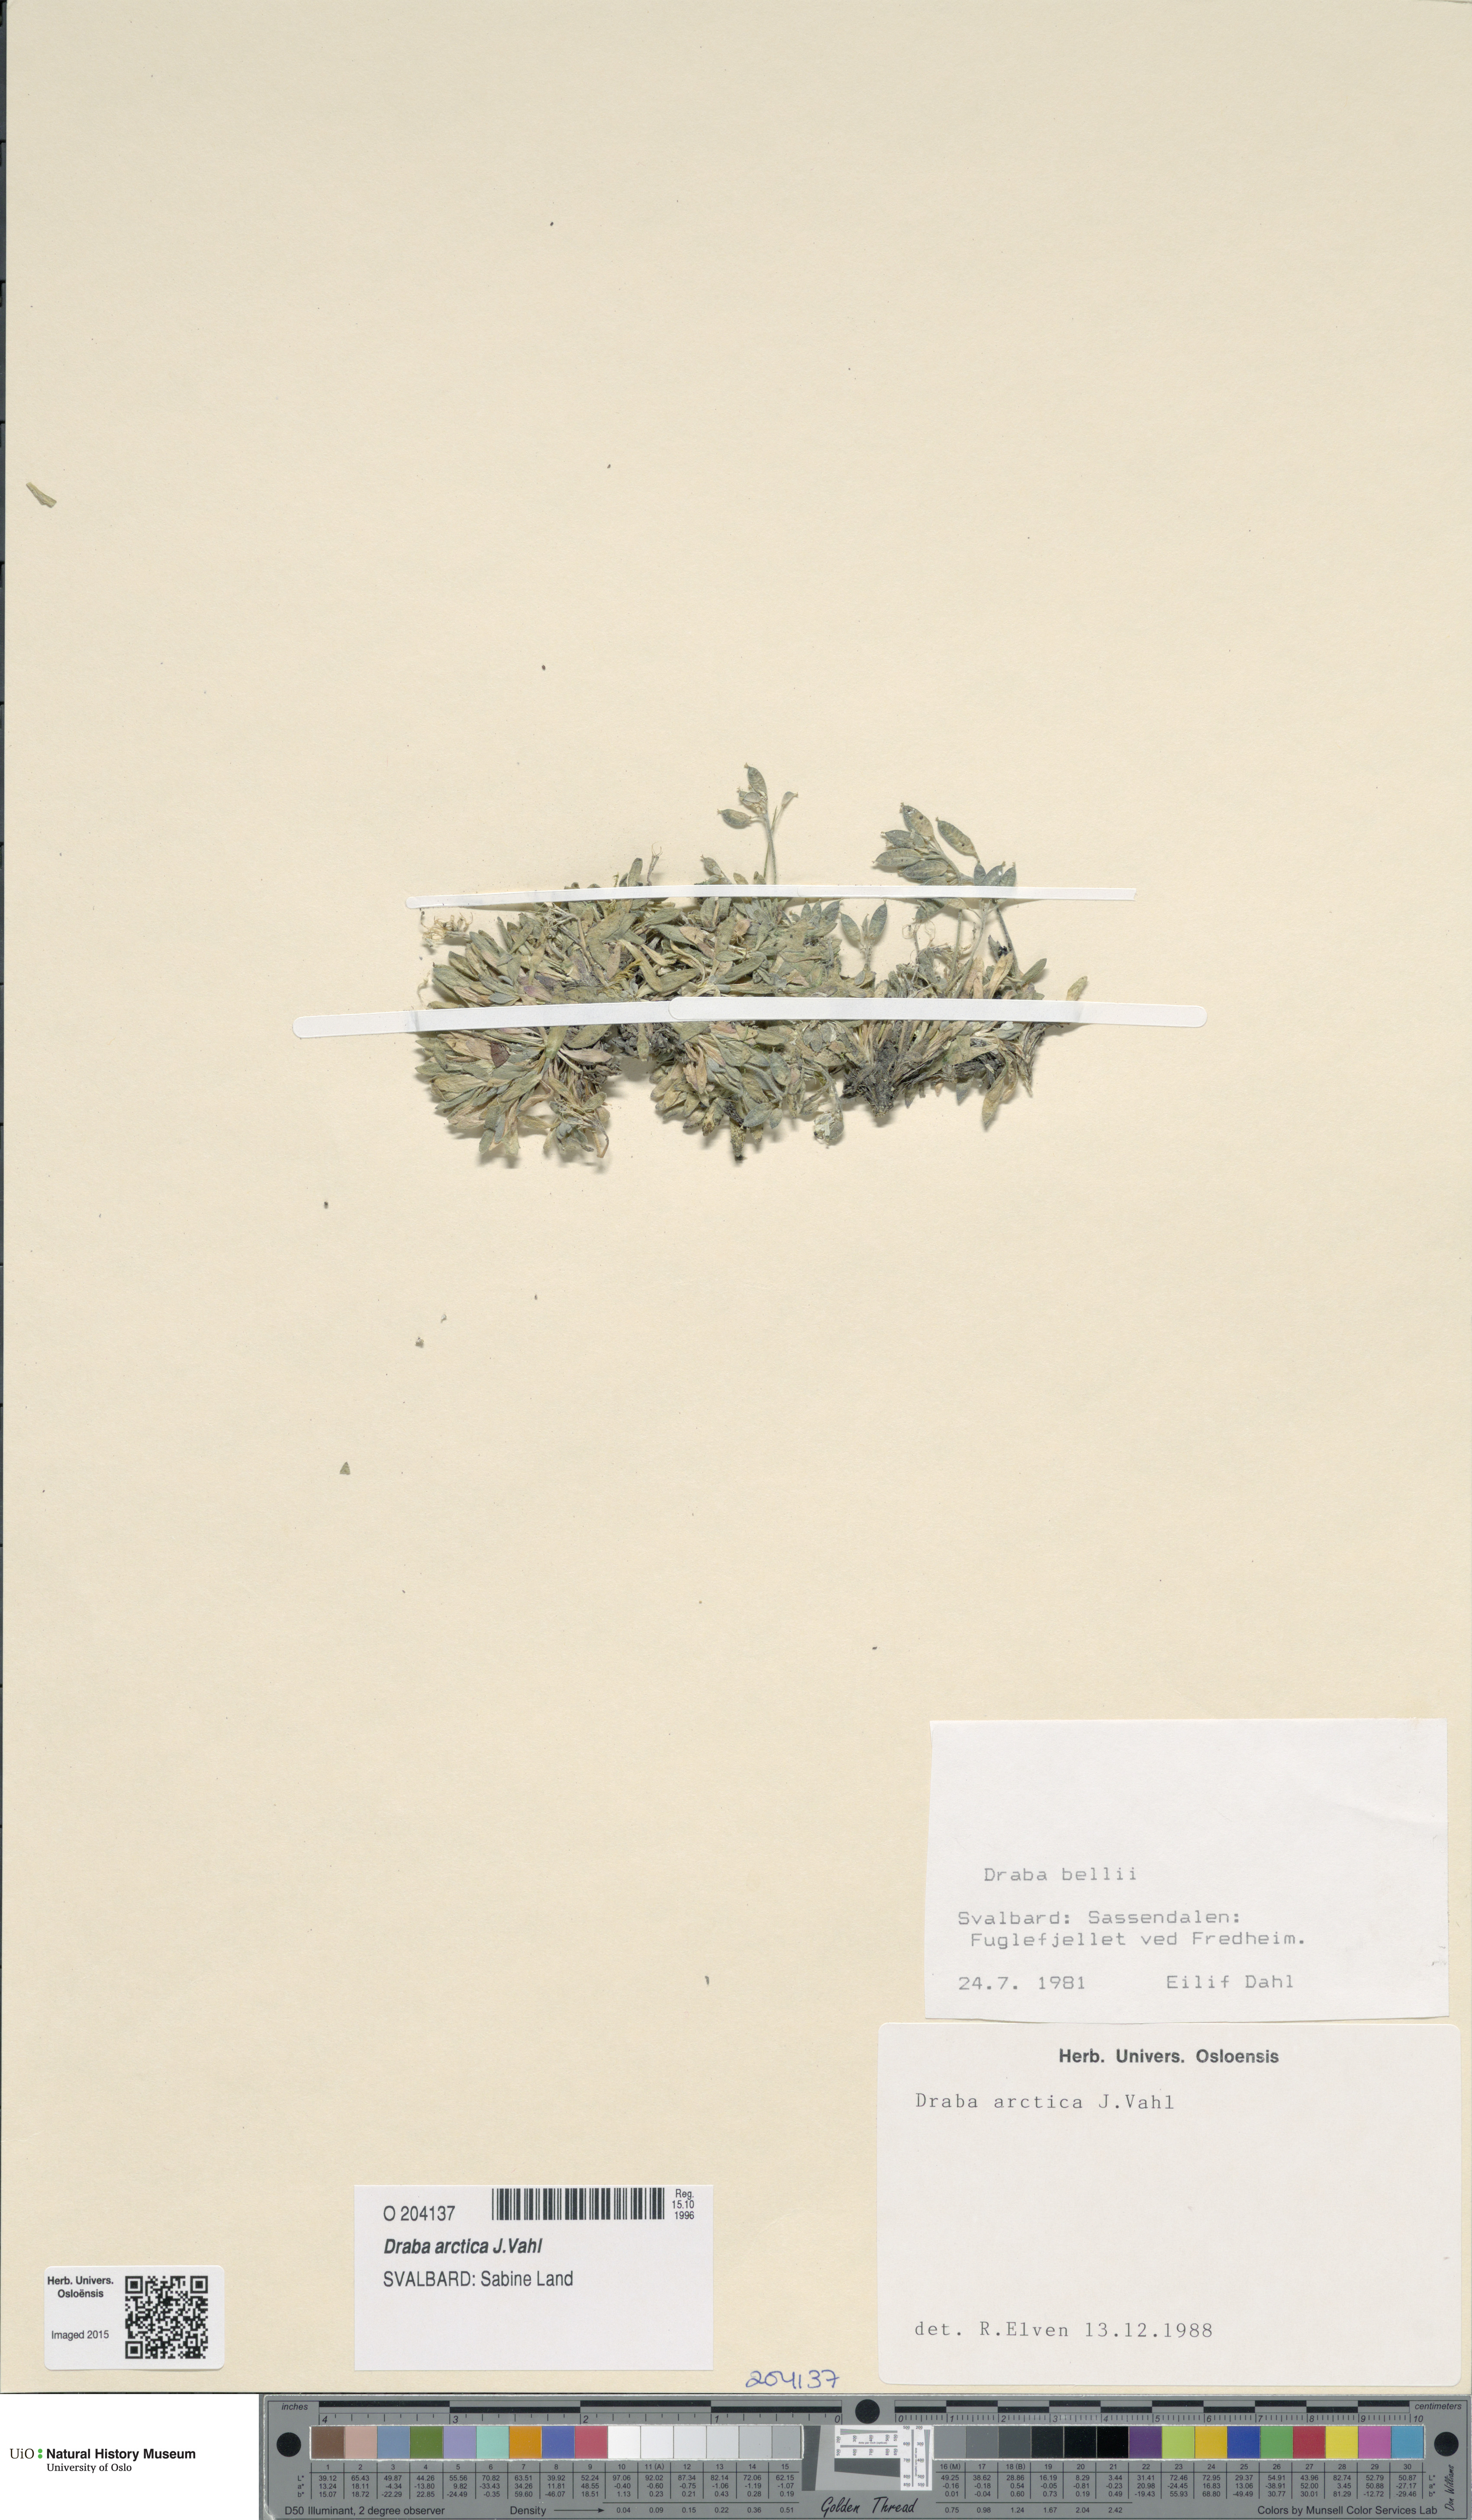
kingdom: Plantae
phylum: Tracheophyta
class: Magnoliopsida
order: Brassicales
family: Brassicaceae
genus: Draba
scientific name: Draba arctica
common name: Arctic draba
